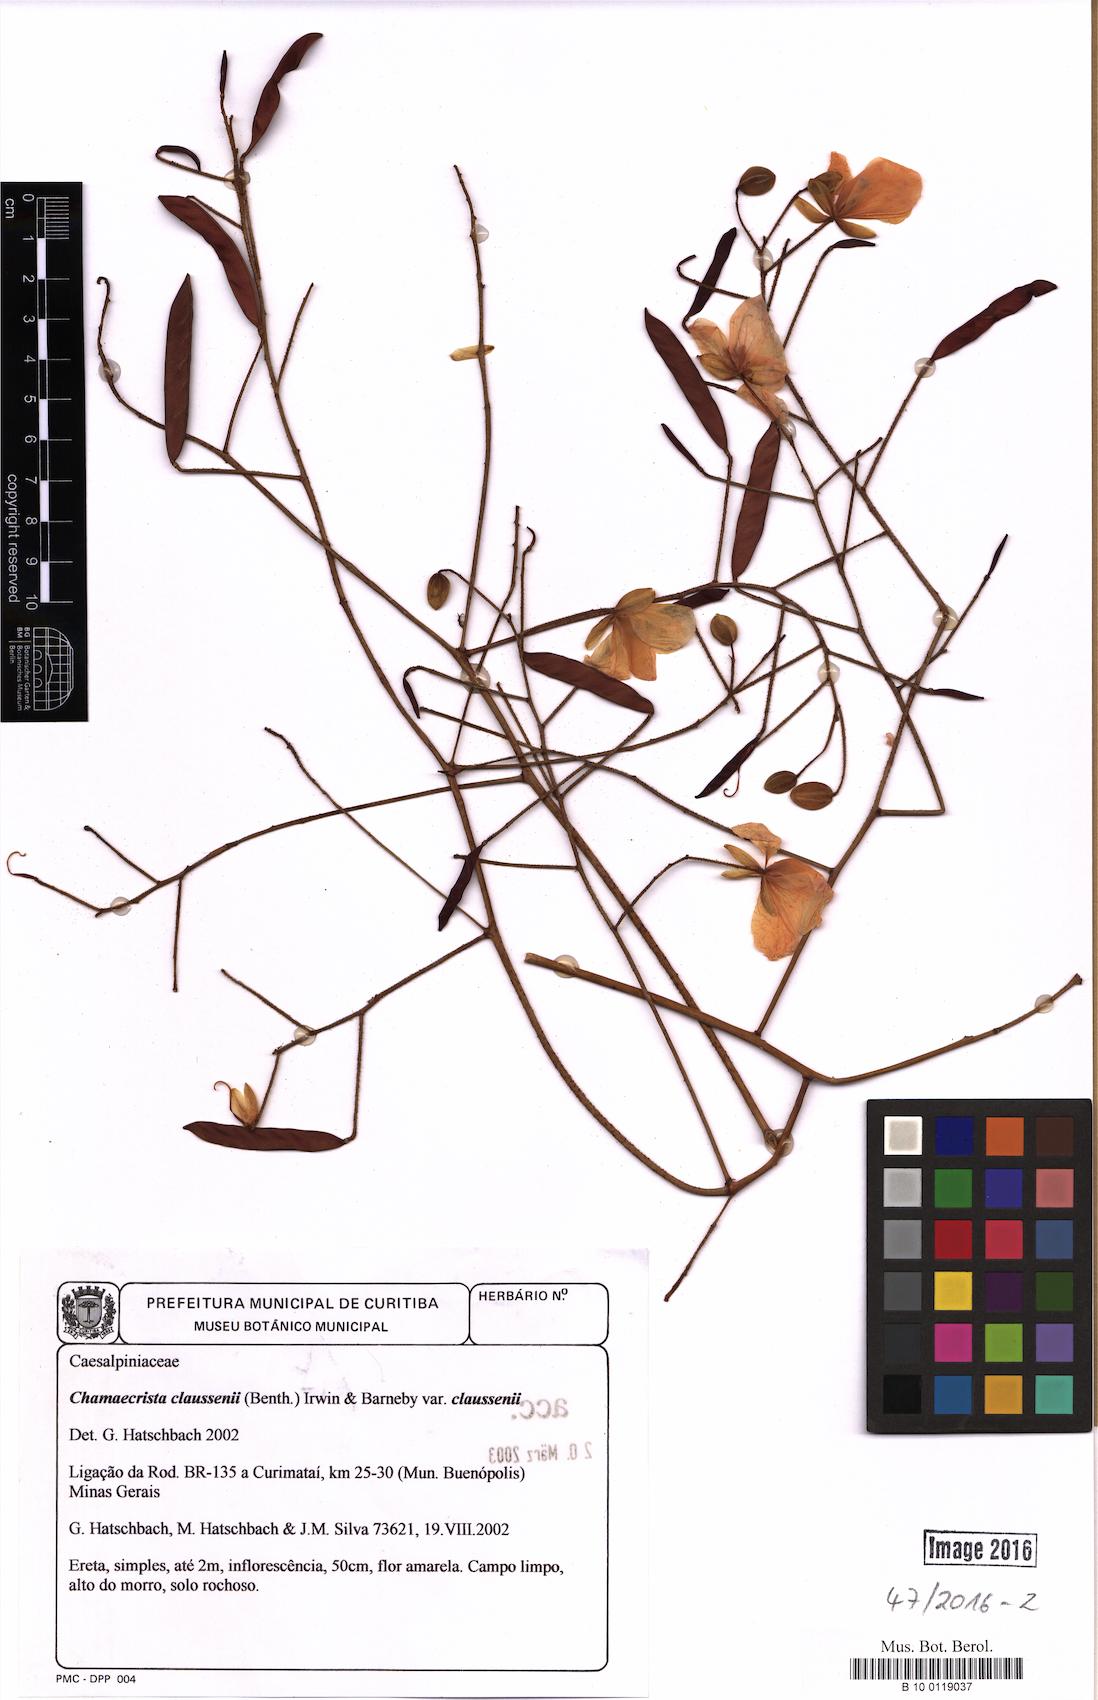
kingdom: Plantae
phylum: Tracheophyta
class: Magnoliopsida
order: Fabales
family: Fabaceae
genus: Chamaecrista
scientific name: Chamaecrista claussenii
